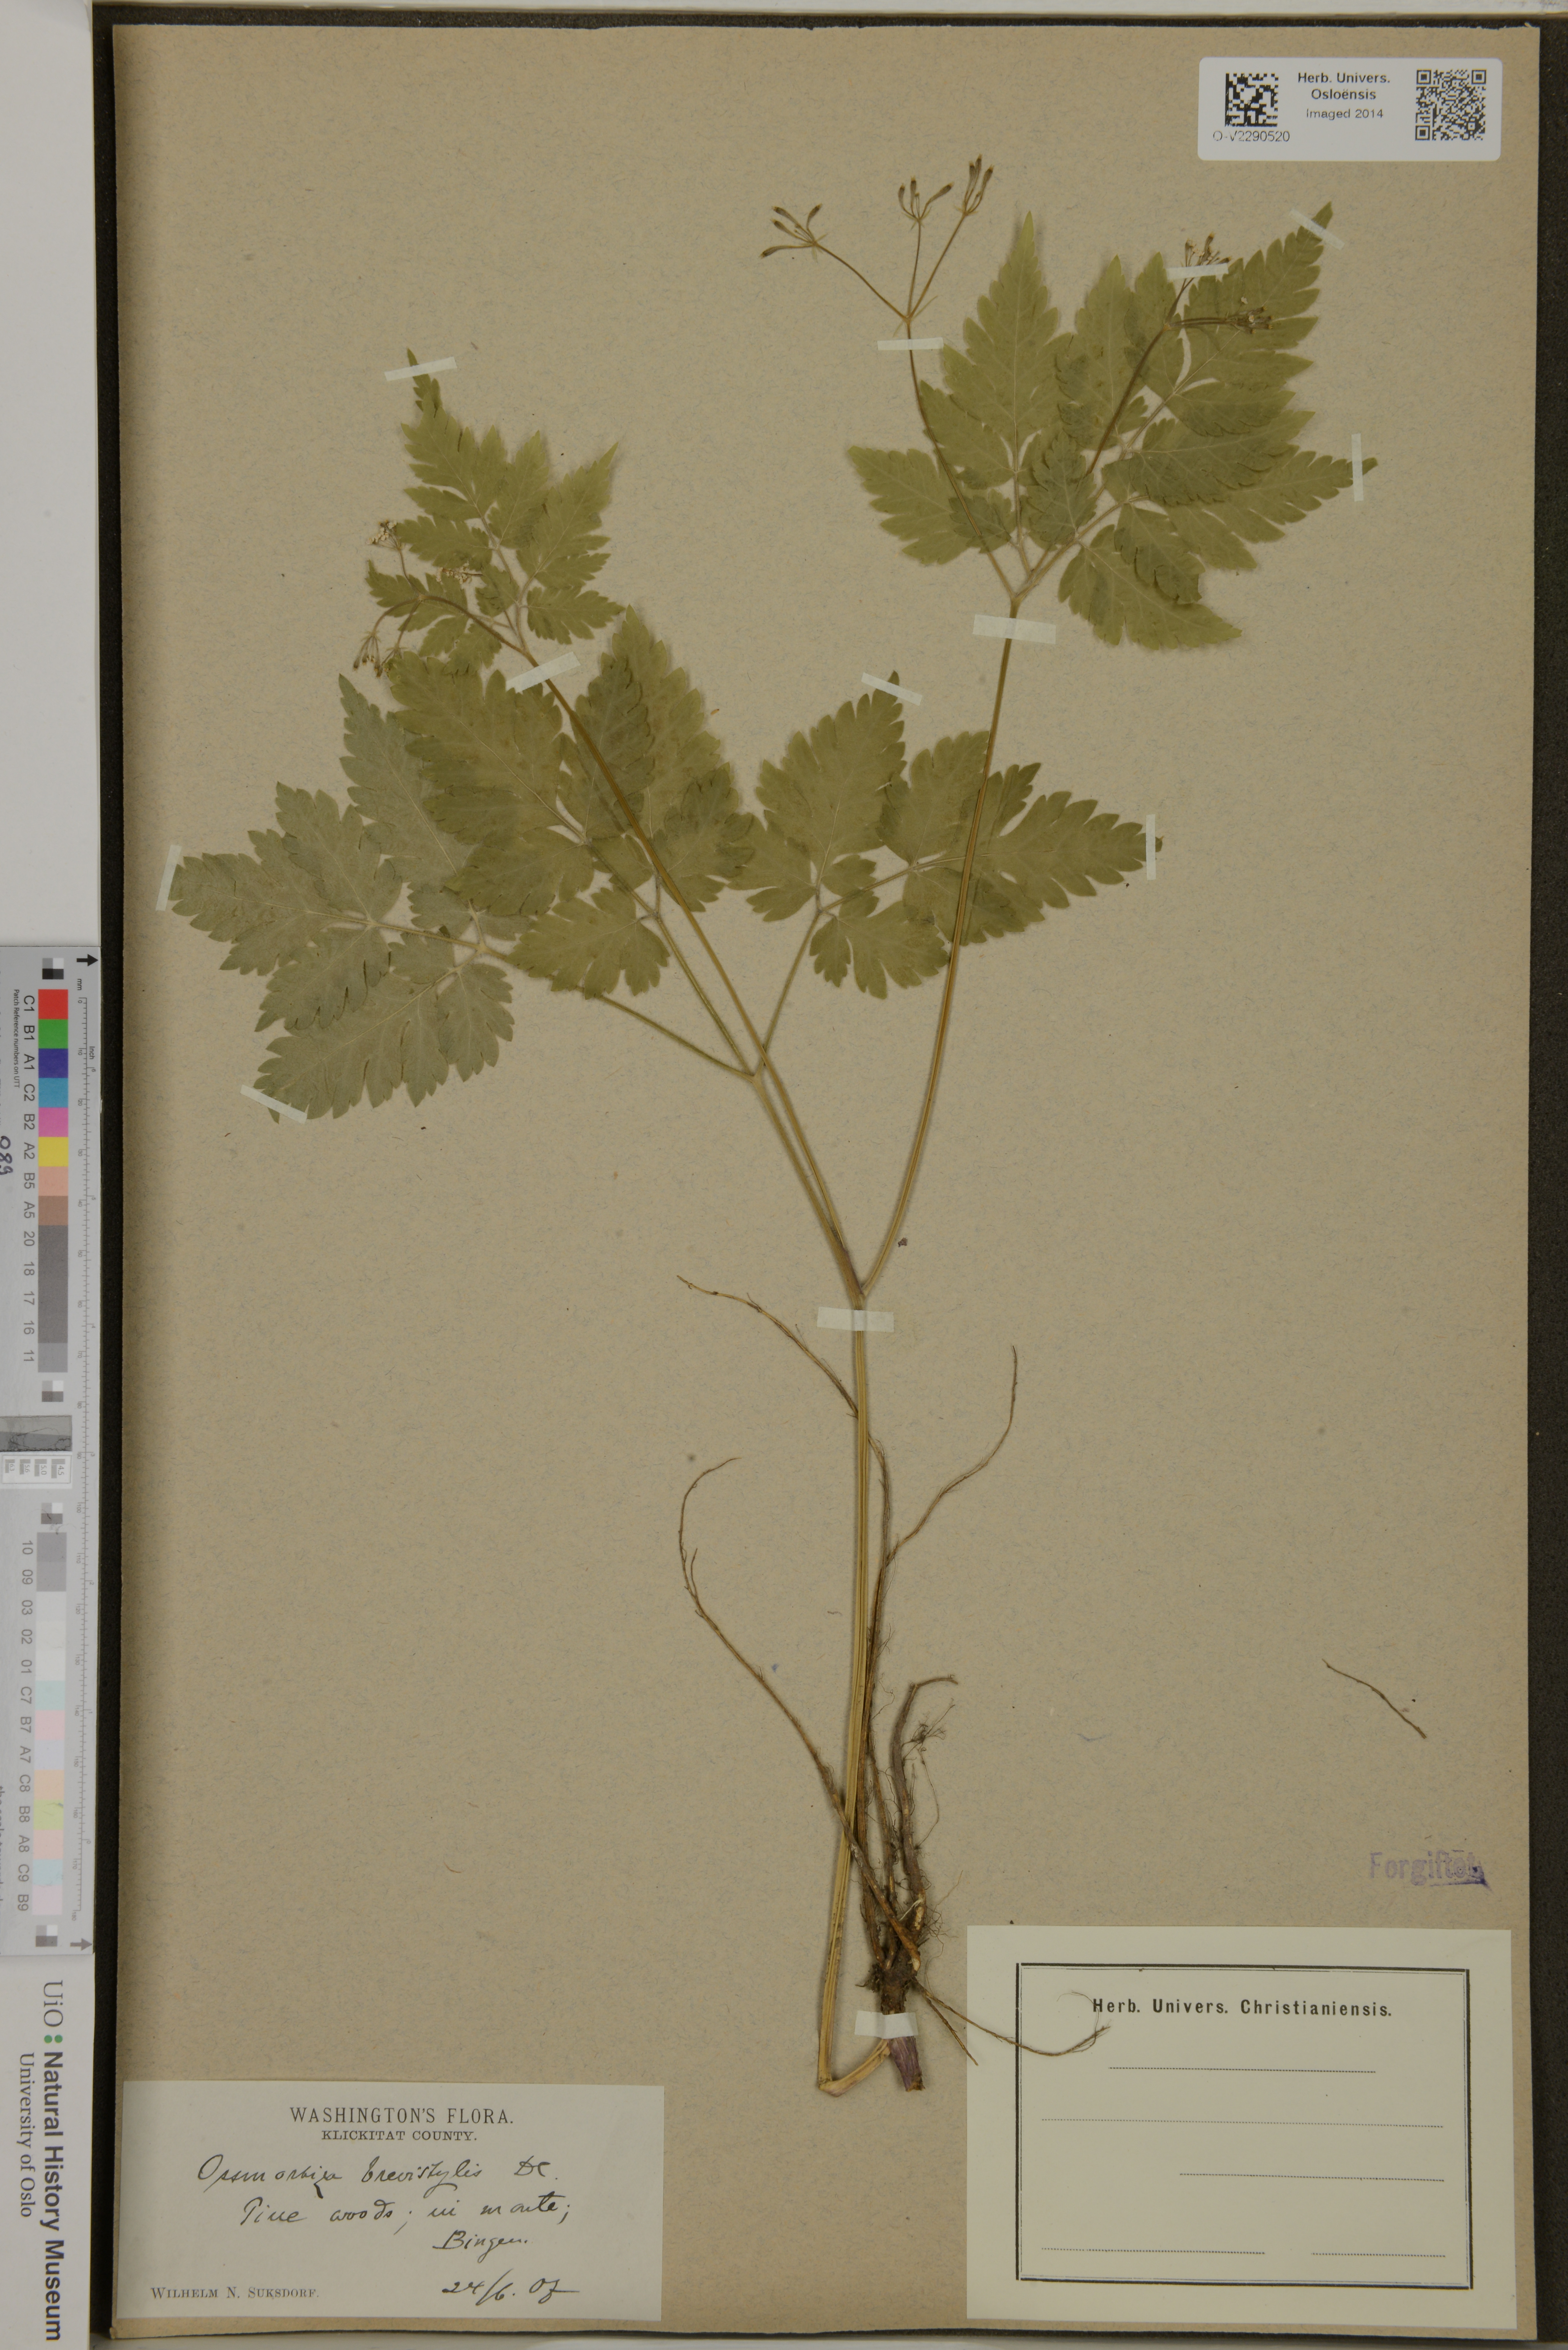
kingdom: Plantae
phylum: Tracheophyta
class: Magnoliopsida
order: Apiales
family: Apiaceae
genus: Osmorhiza
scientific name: Osmorhiza
